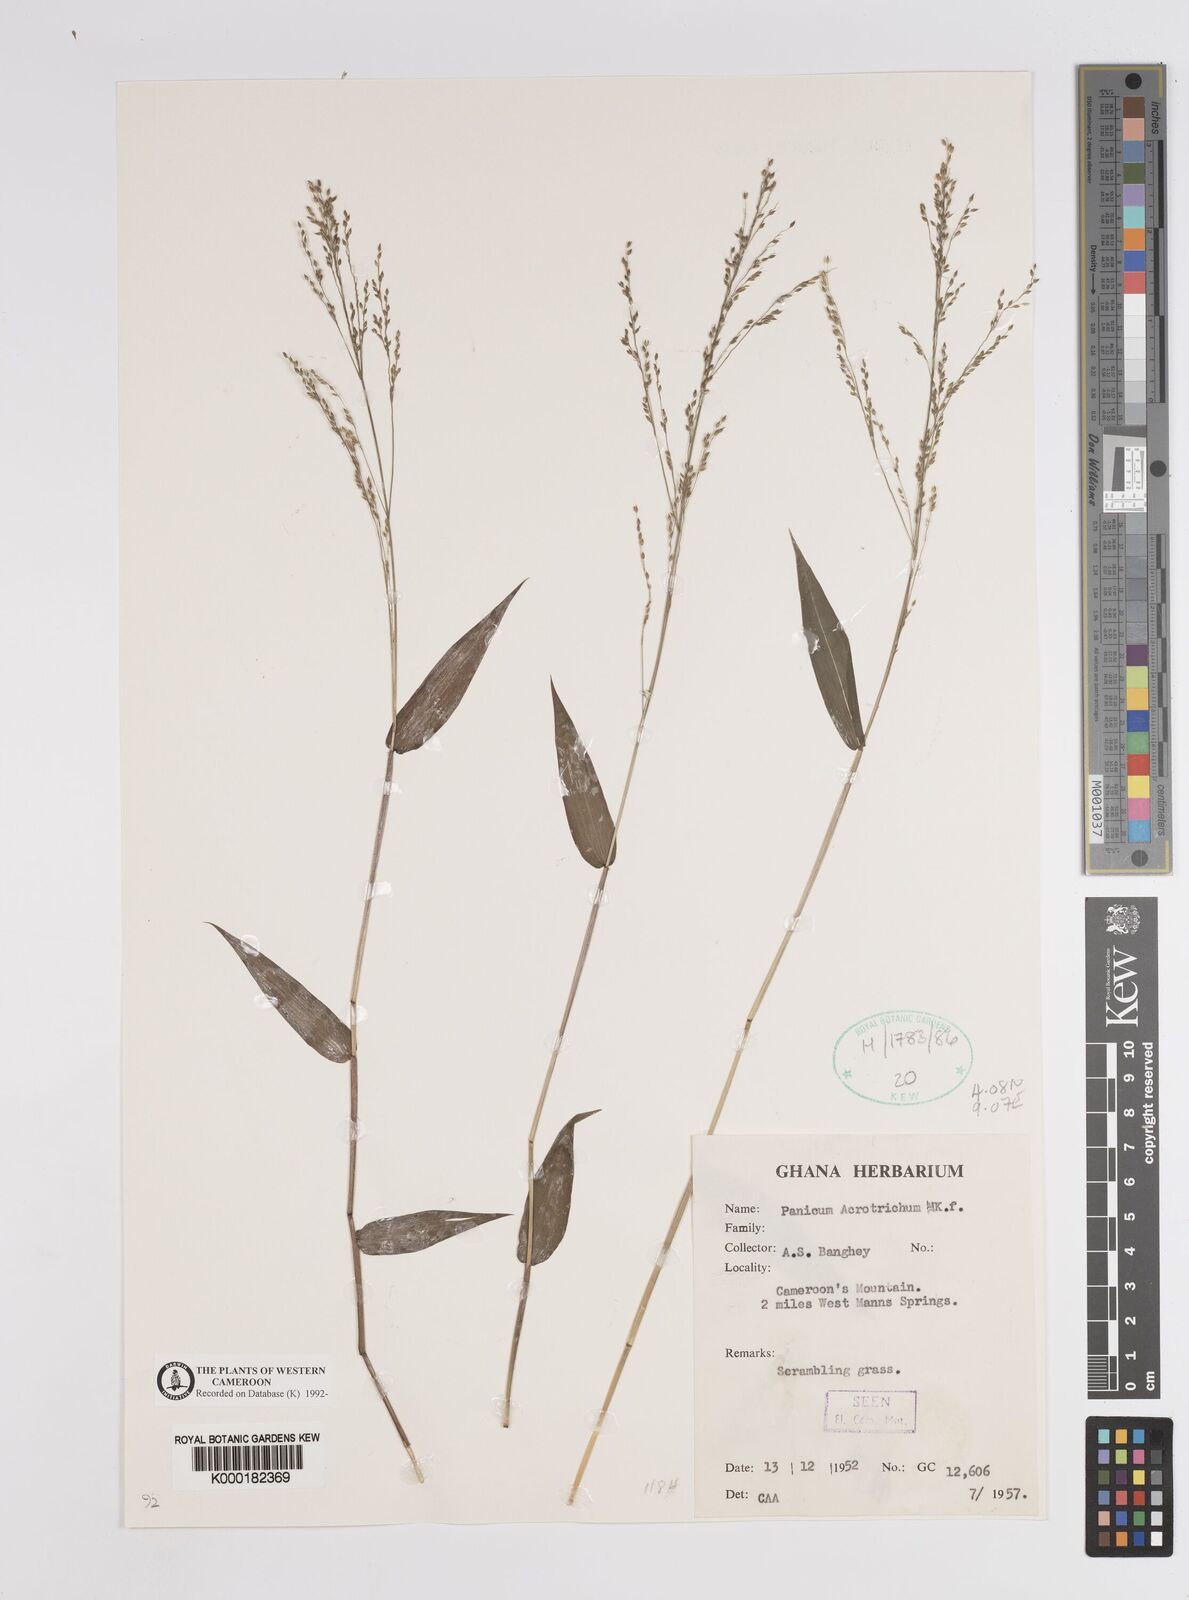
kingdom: Plantae
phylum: Tracheophyta
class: Liliopsida
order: Poales
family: Poaceae
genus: Panicum
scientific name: Panicum acrotrichum
